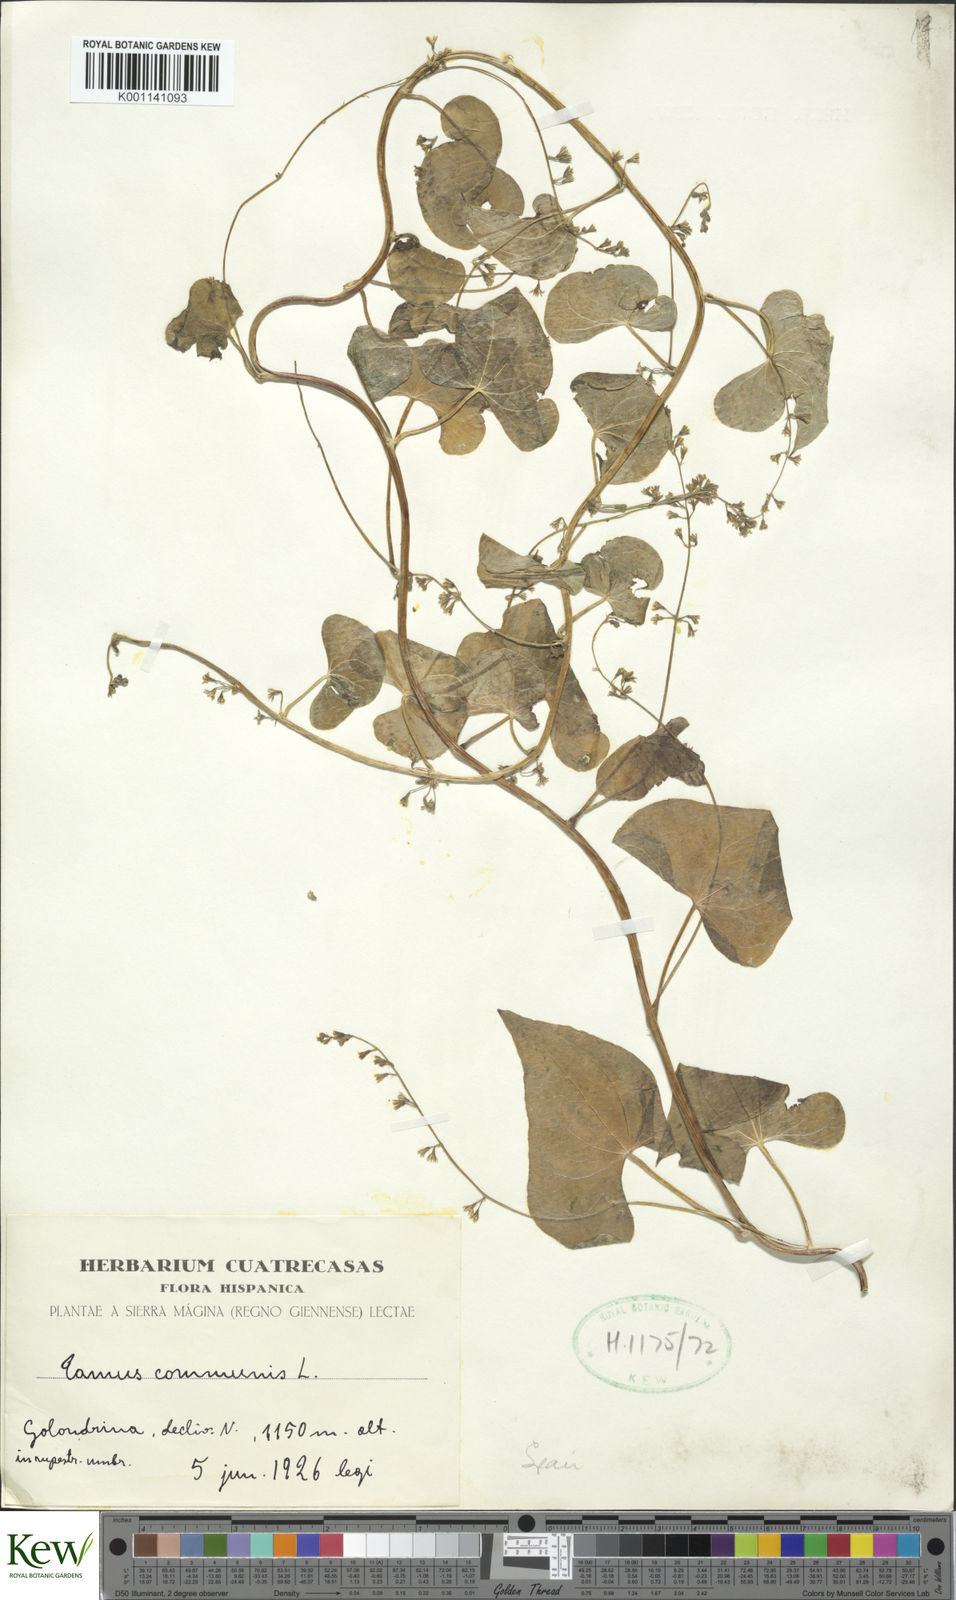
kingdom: Plantae
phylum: Tracheophyta
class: Liliopsida
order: Dioscoreales
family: Dioscoreaceae
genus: Dioscorea
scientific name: Dioscorea communis
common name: Black-bindweed
